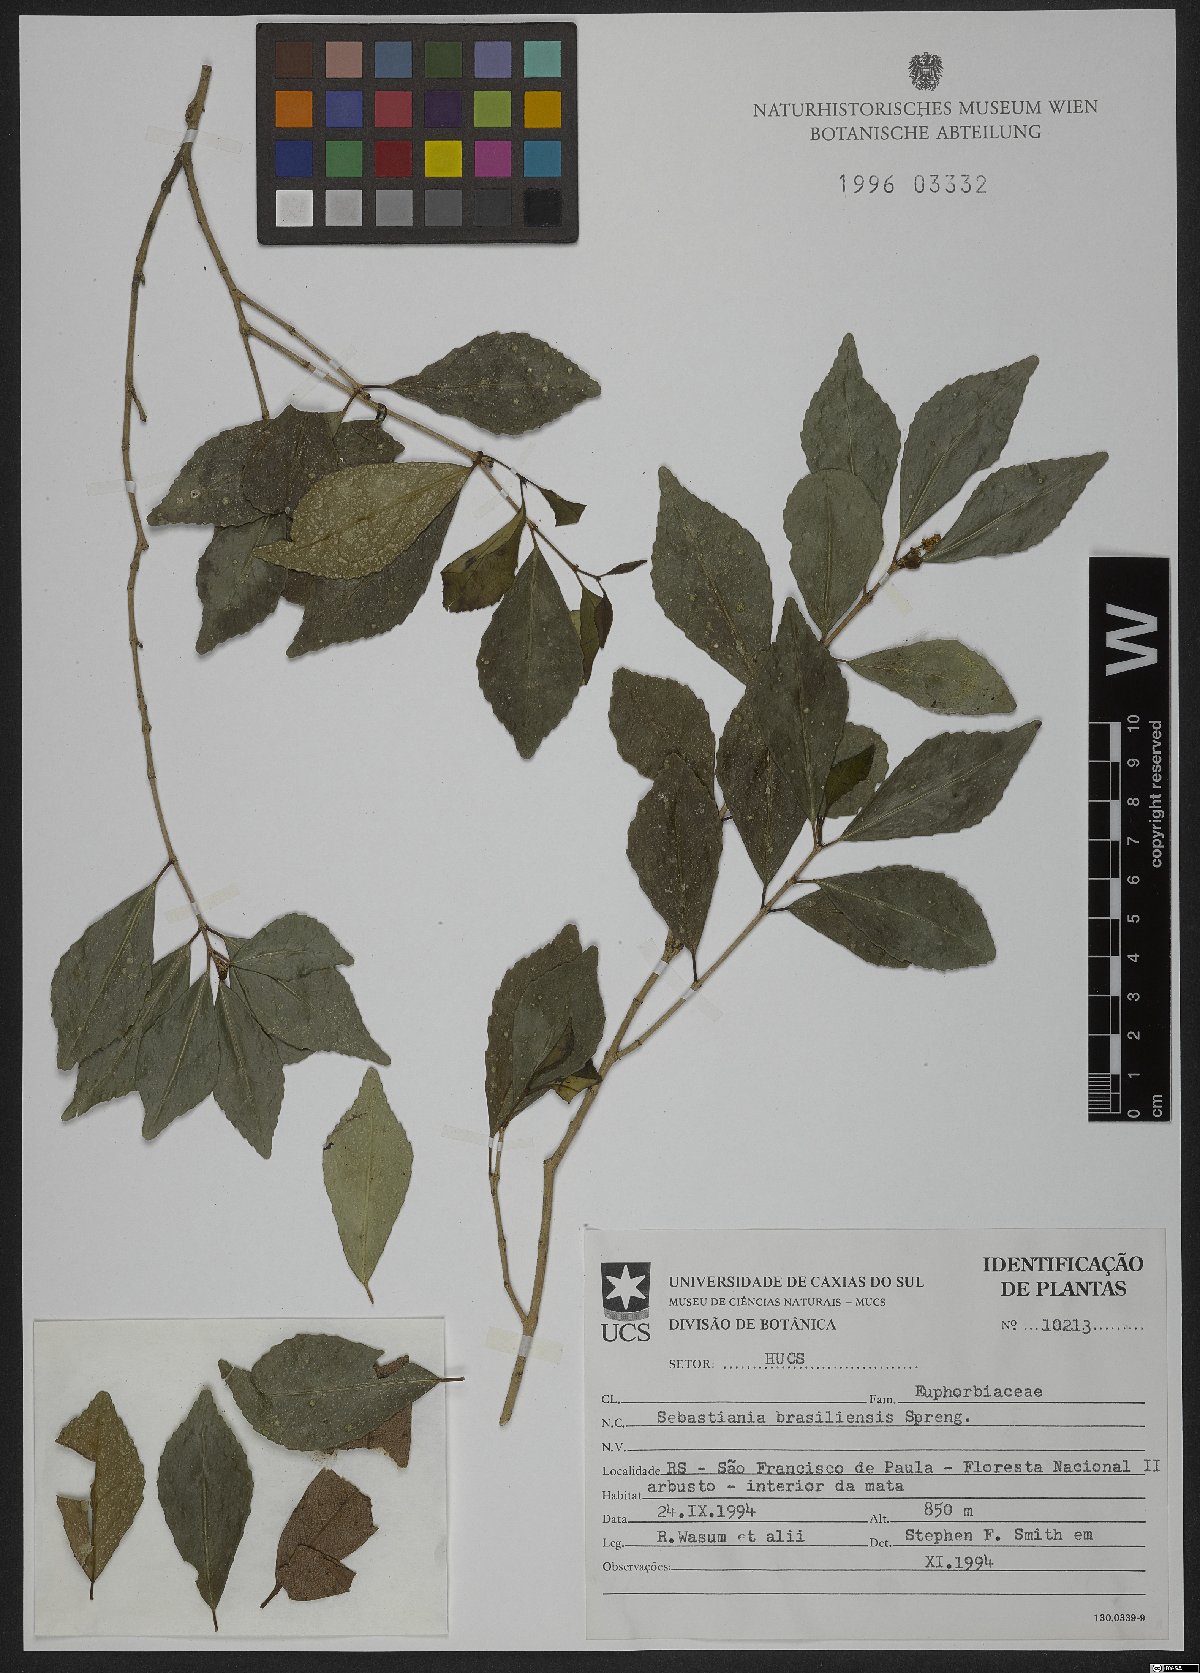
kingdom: Plantae
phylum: Tracheophyta
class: Magnoliopsida
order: Malpighiales
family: Euphorbiaceae
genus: Sebastiania
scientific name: Sebastiania brasiliensis
